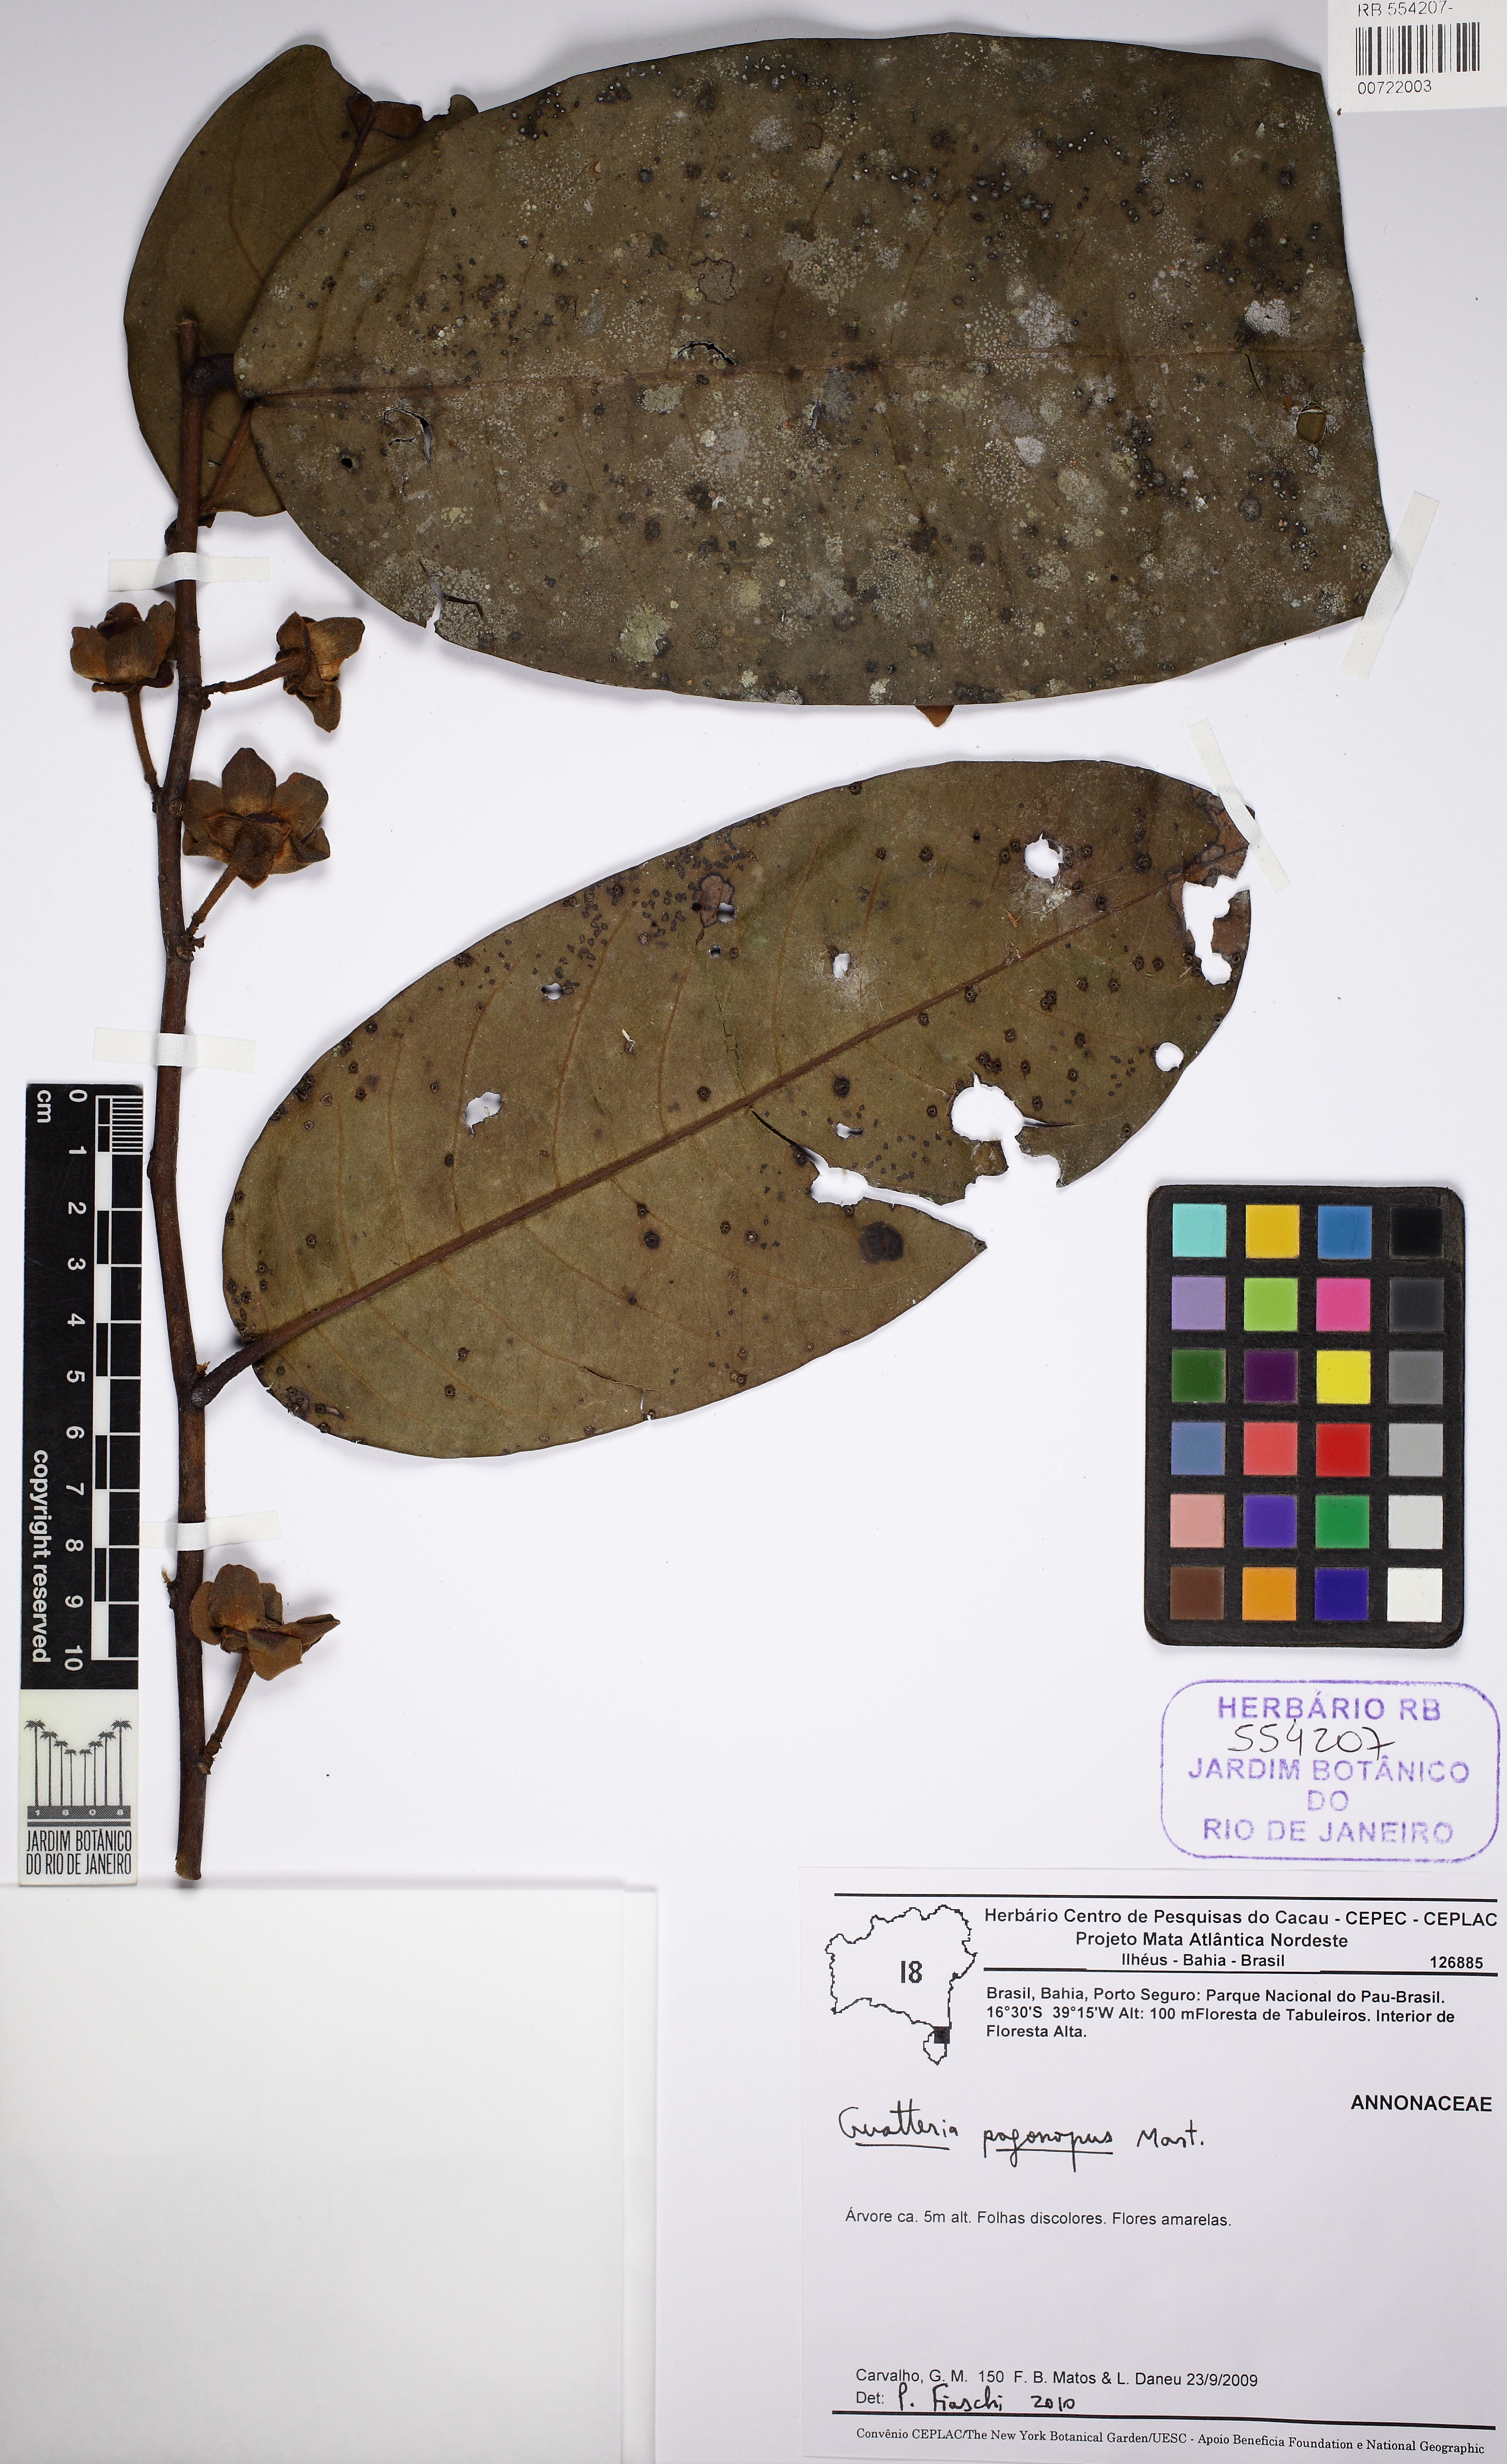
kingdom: Plantae
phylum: Tracheophyta
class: Magnoliopsida
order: Magnoliales
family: Annonaceae
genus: Guatteria
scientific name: Guatteria pogonopus
